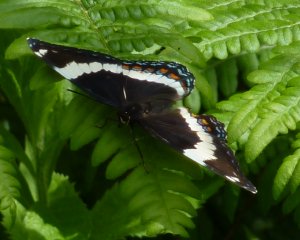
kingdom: Animalia
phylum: Arthropoda
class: Insecta
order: Lepidoptera
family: Nymphalidae
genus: Limenitis
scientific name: Limenitis arthemis
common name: Red-spotted Admiral
